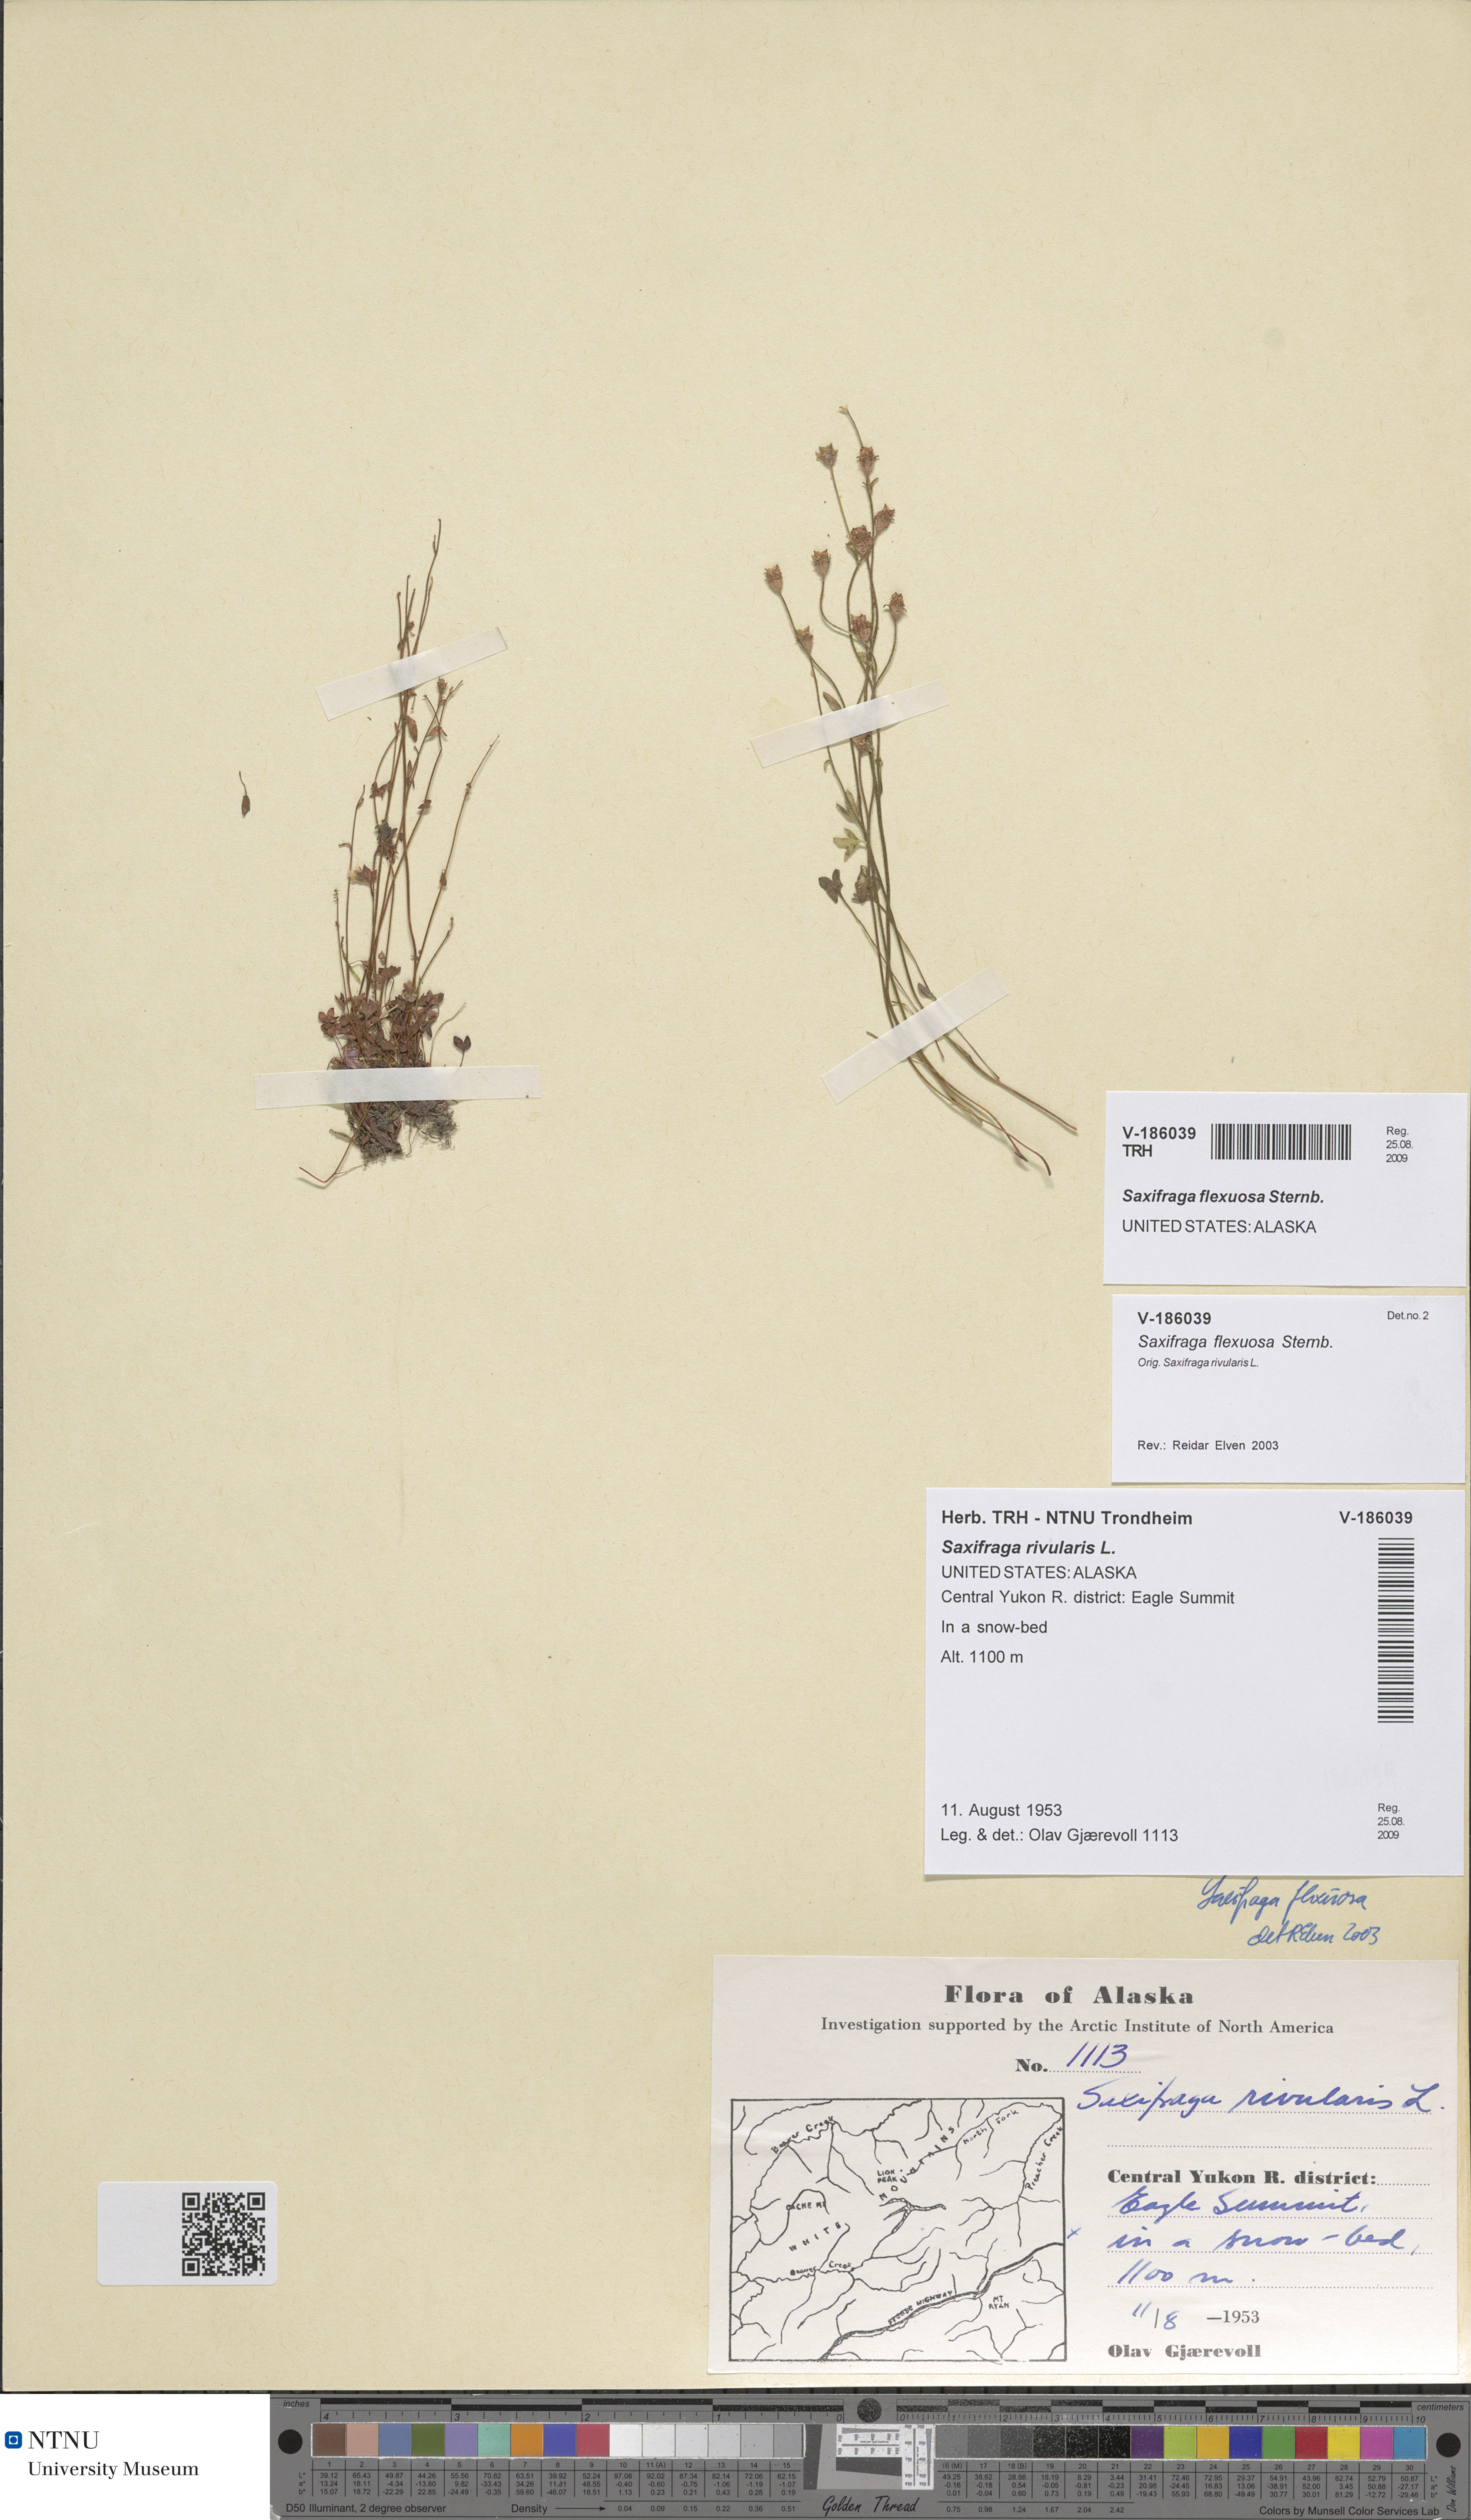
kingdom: Plantae
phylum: Tracheophyta
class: Magnoliopsida
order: Saxifragales
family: Saxifragaceae
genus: Saxifraga
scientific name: Saxifraga hyperborea
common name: Arctic saxifrage
